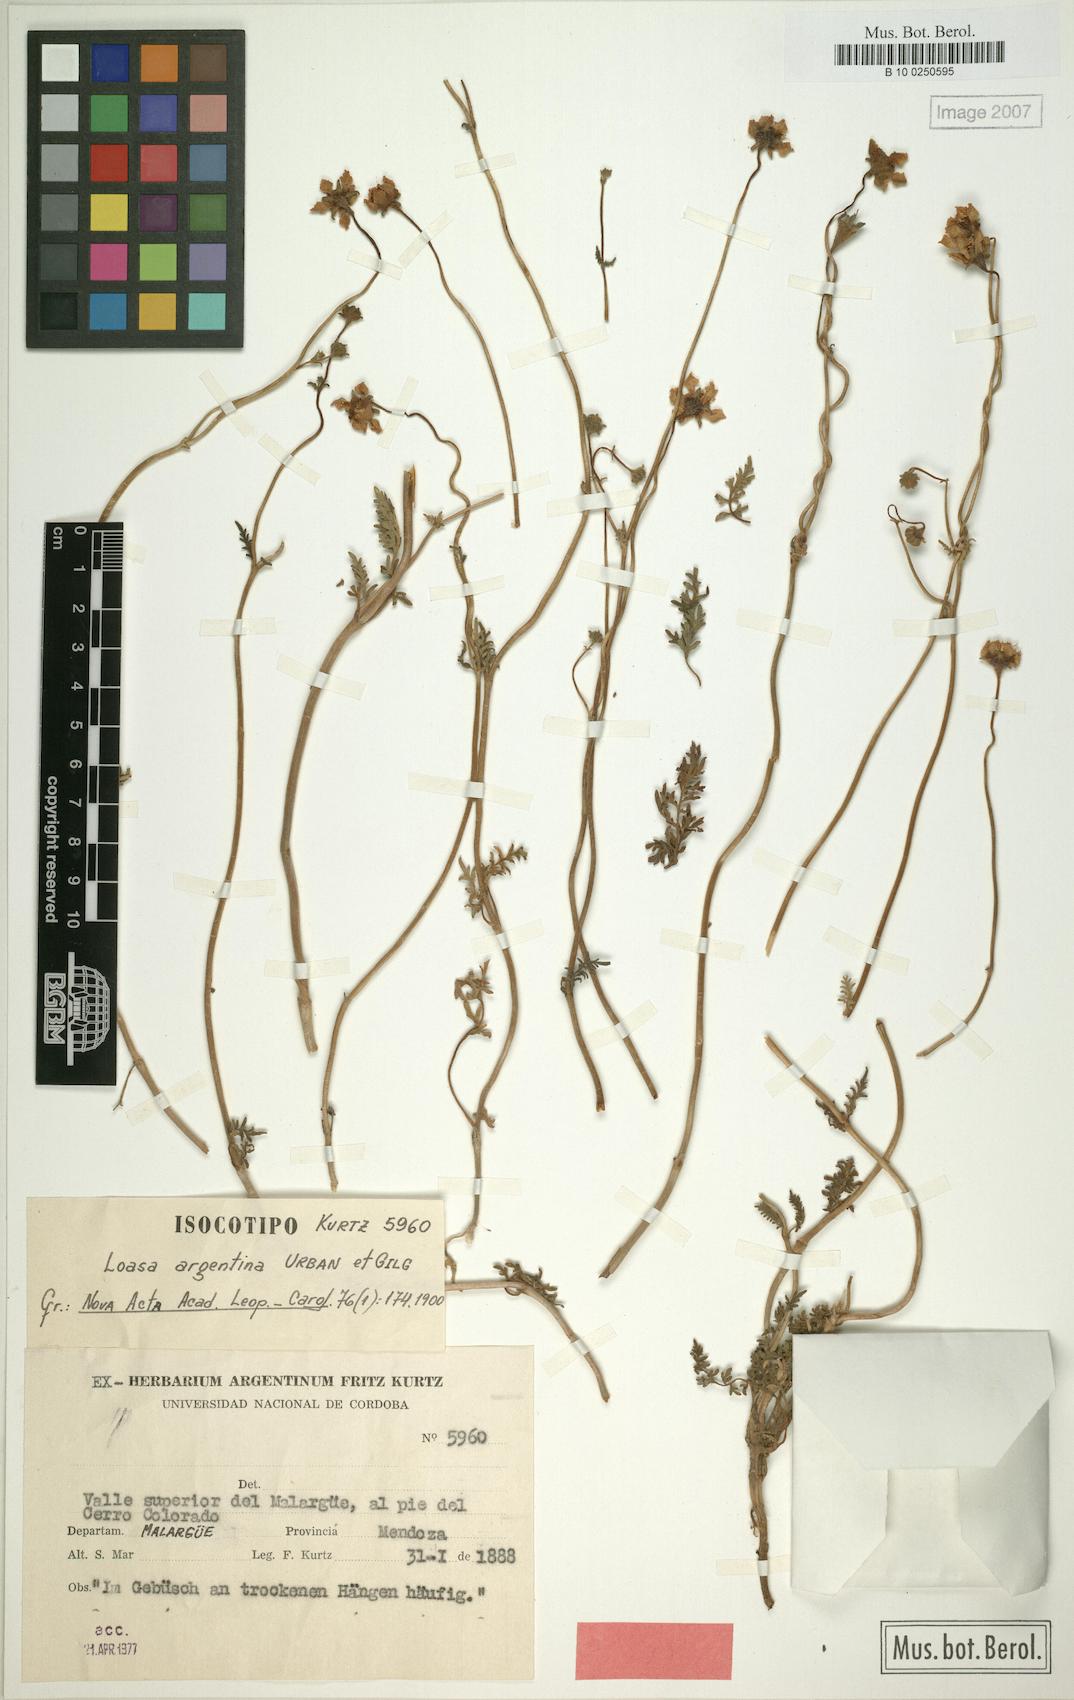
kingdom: Plantae
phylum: Tracheophyta
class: Magnoliopsida
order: Cornales
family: Loasaceae
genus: Pinnasa
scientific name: Pinnasa bergii
